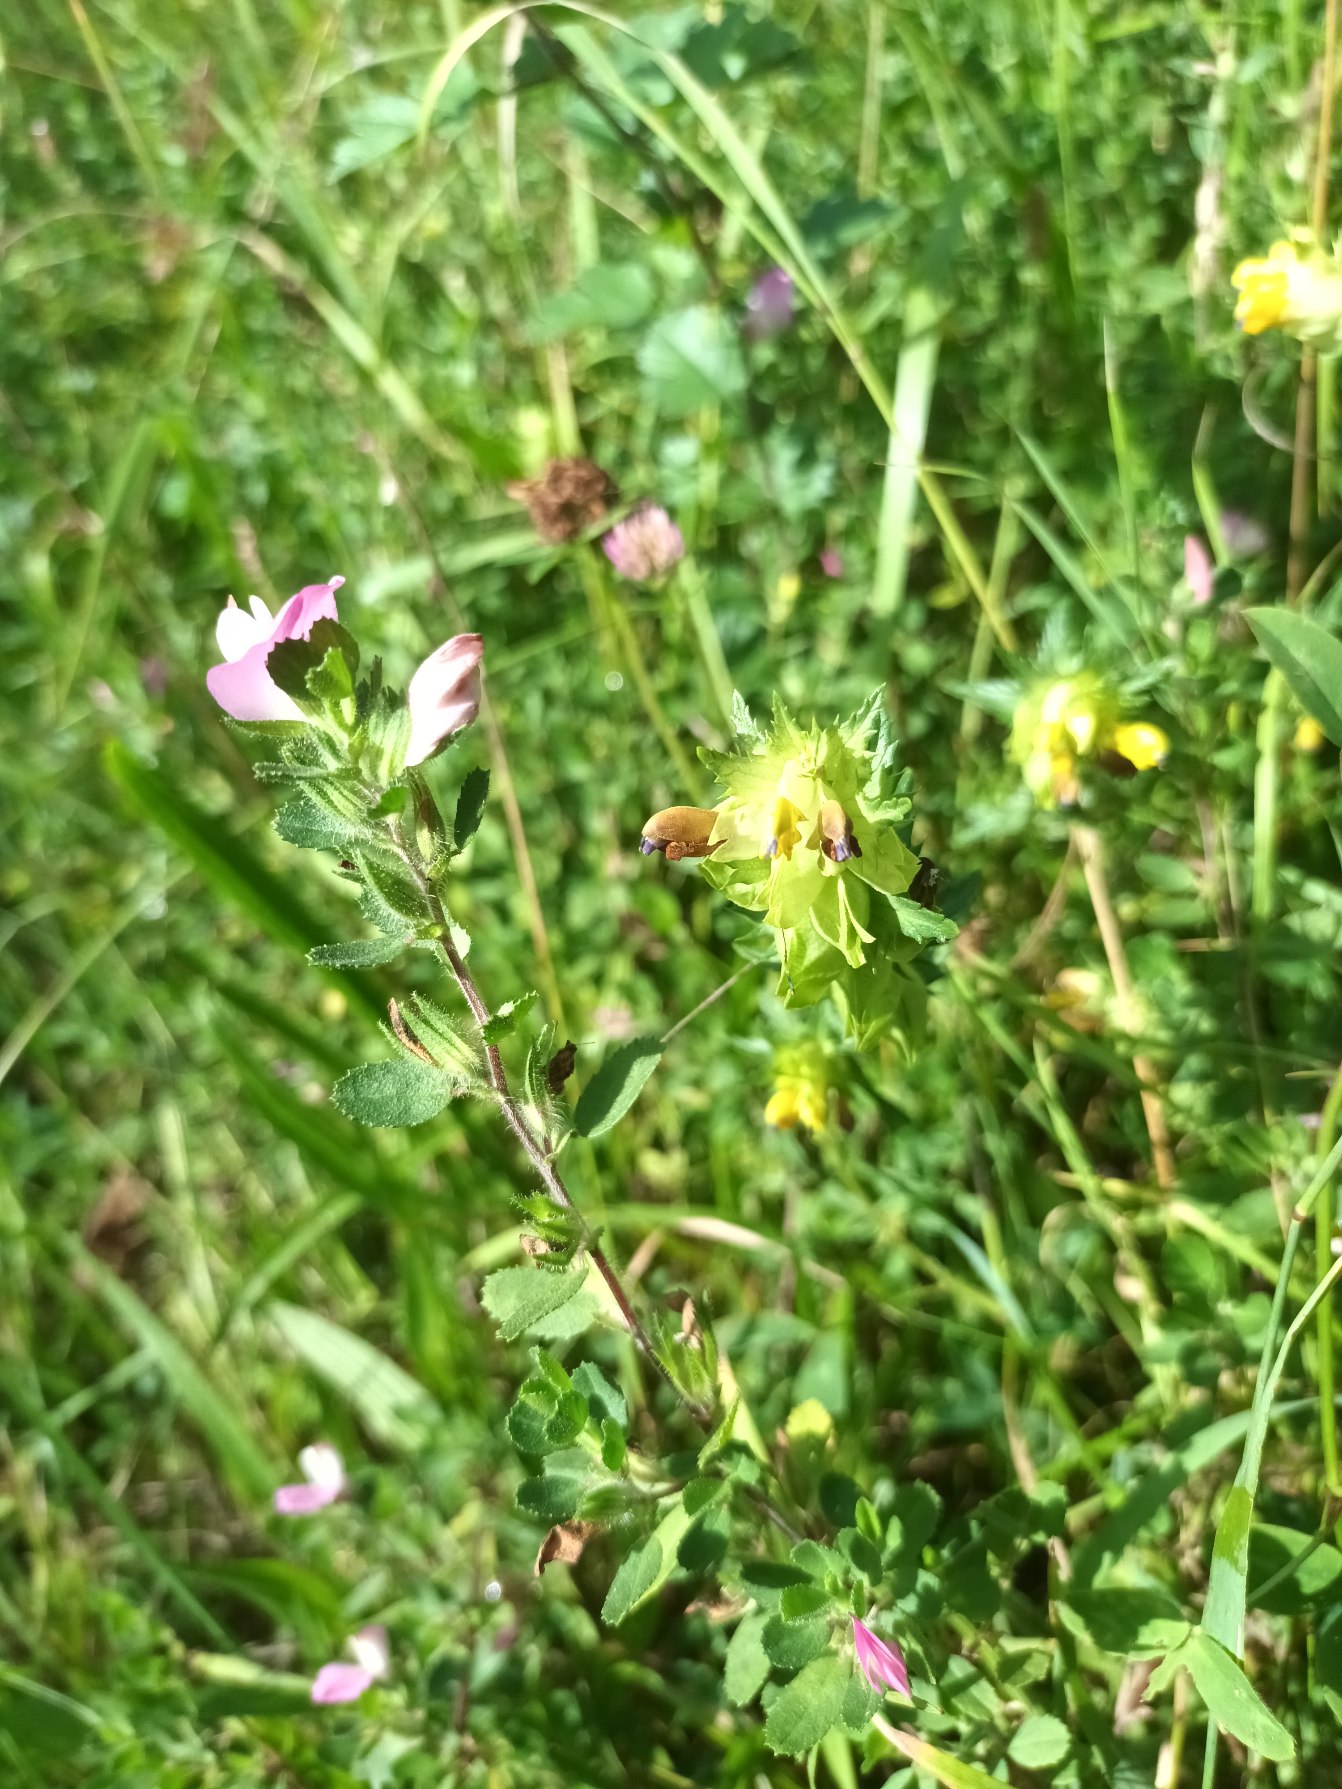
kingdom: Plantae
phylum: Tracheophyta
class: Magnoliopsida
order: Lamiales
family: Orobanchaceae
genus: Rhinanthus
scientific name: Rhinanthus
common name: Stor skjaller
